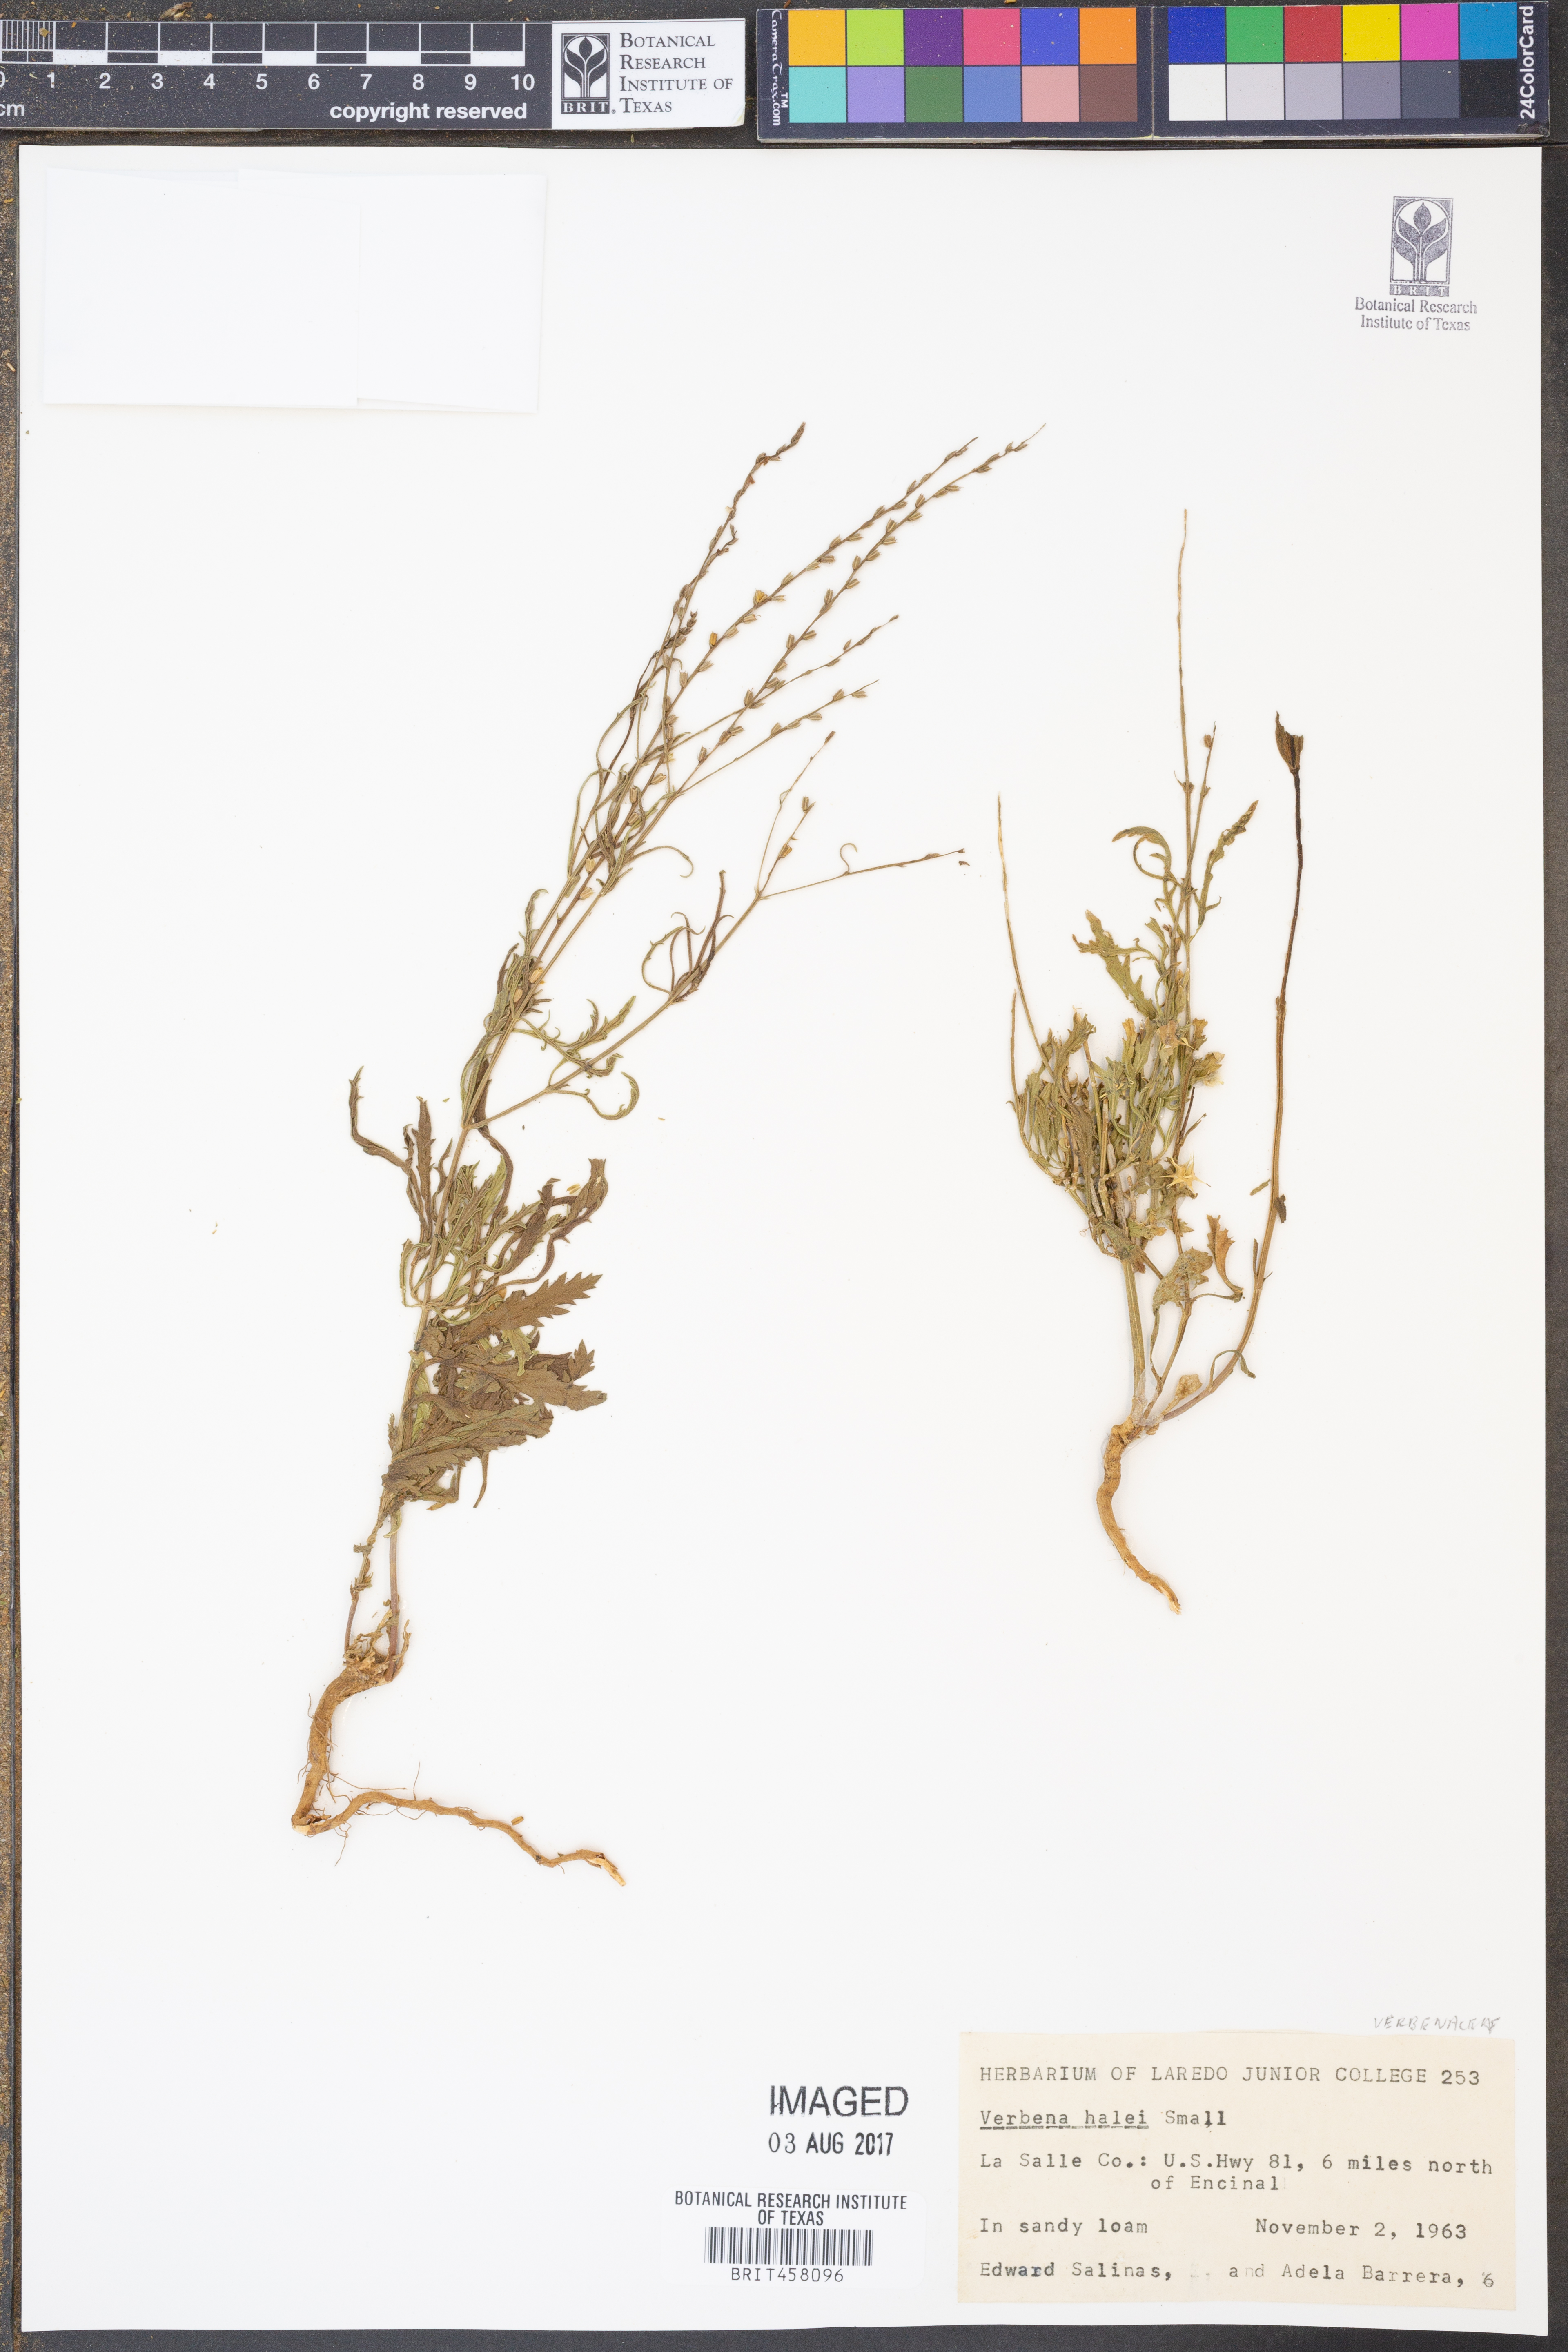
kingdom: Plantae
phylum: Tracheophyta
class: Magnoliopsida
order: Lamiales
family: Verbenaceae
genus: Verbena
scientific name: Verbena halei
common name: Texas vervain
